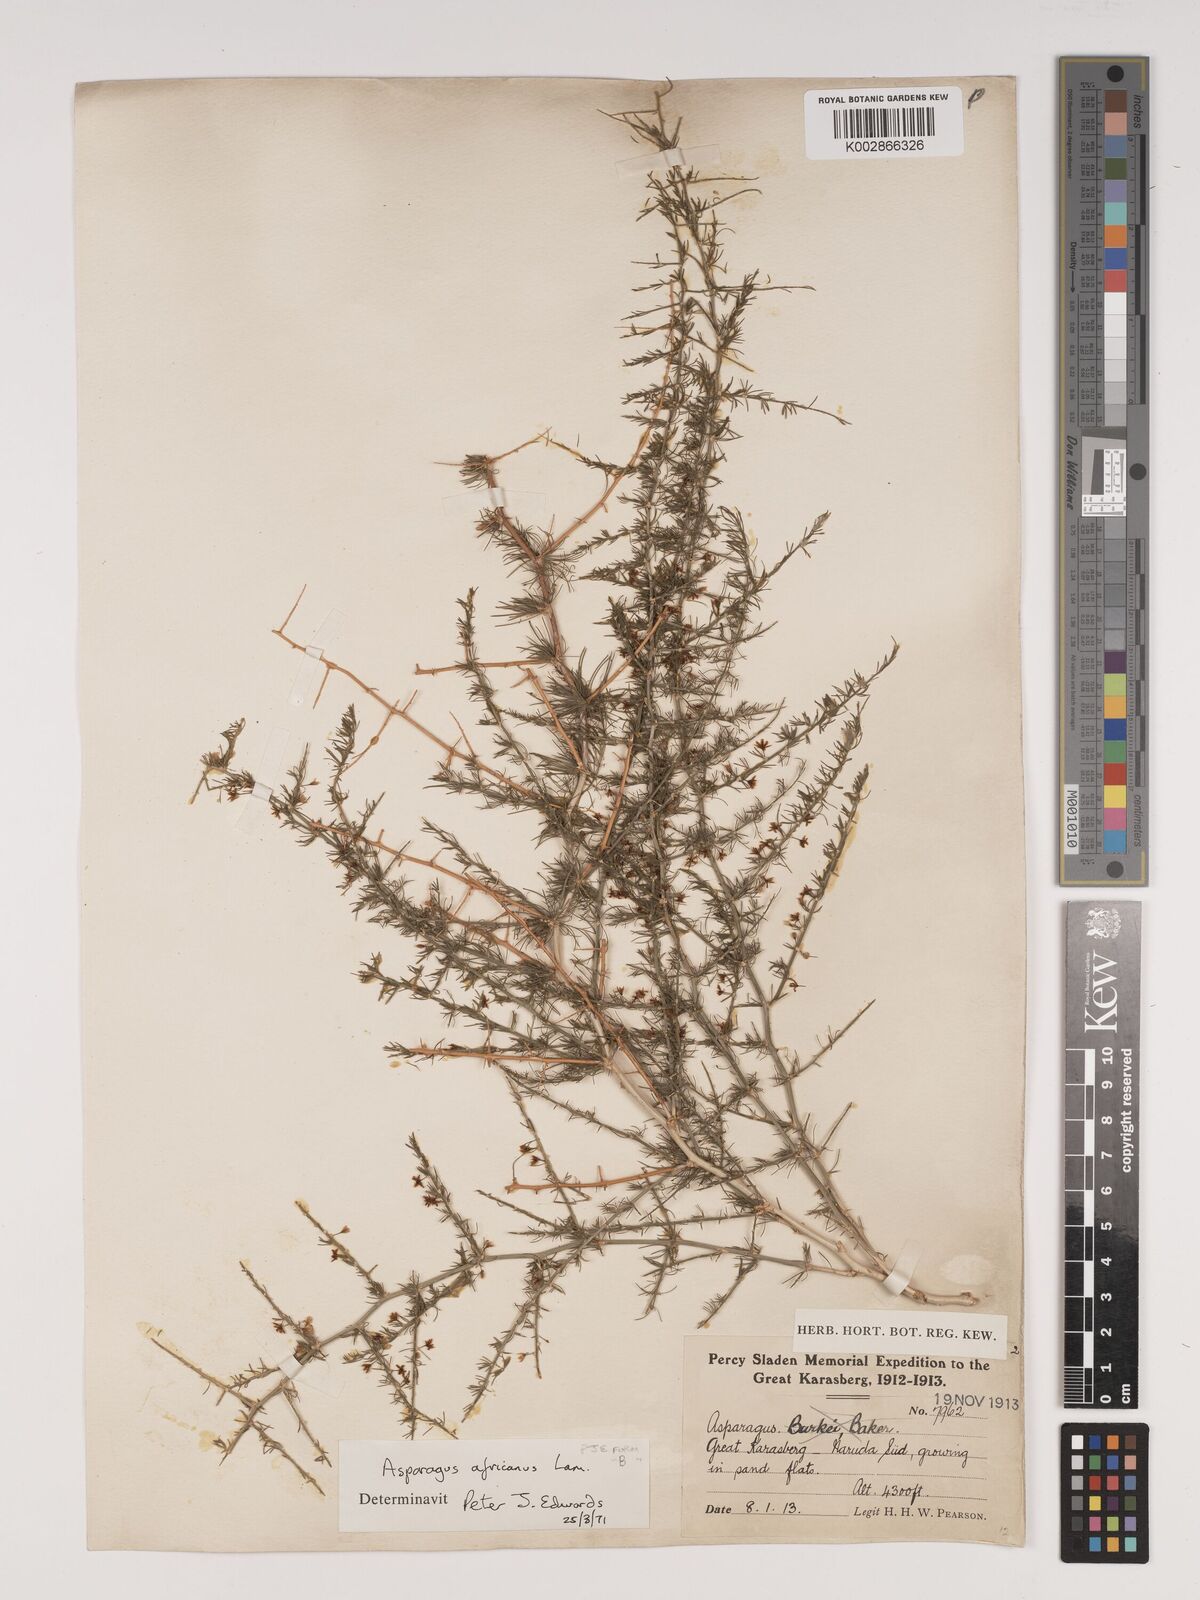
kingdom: Plantae
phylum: Tracheophyta
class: Liliopsida
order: Asparagales
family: Asparagaceae
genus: Asparagus
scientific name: Asparagus africanus
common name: Asparagus-fern
